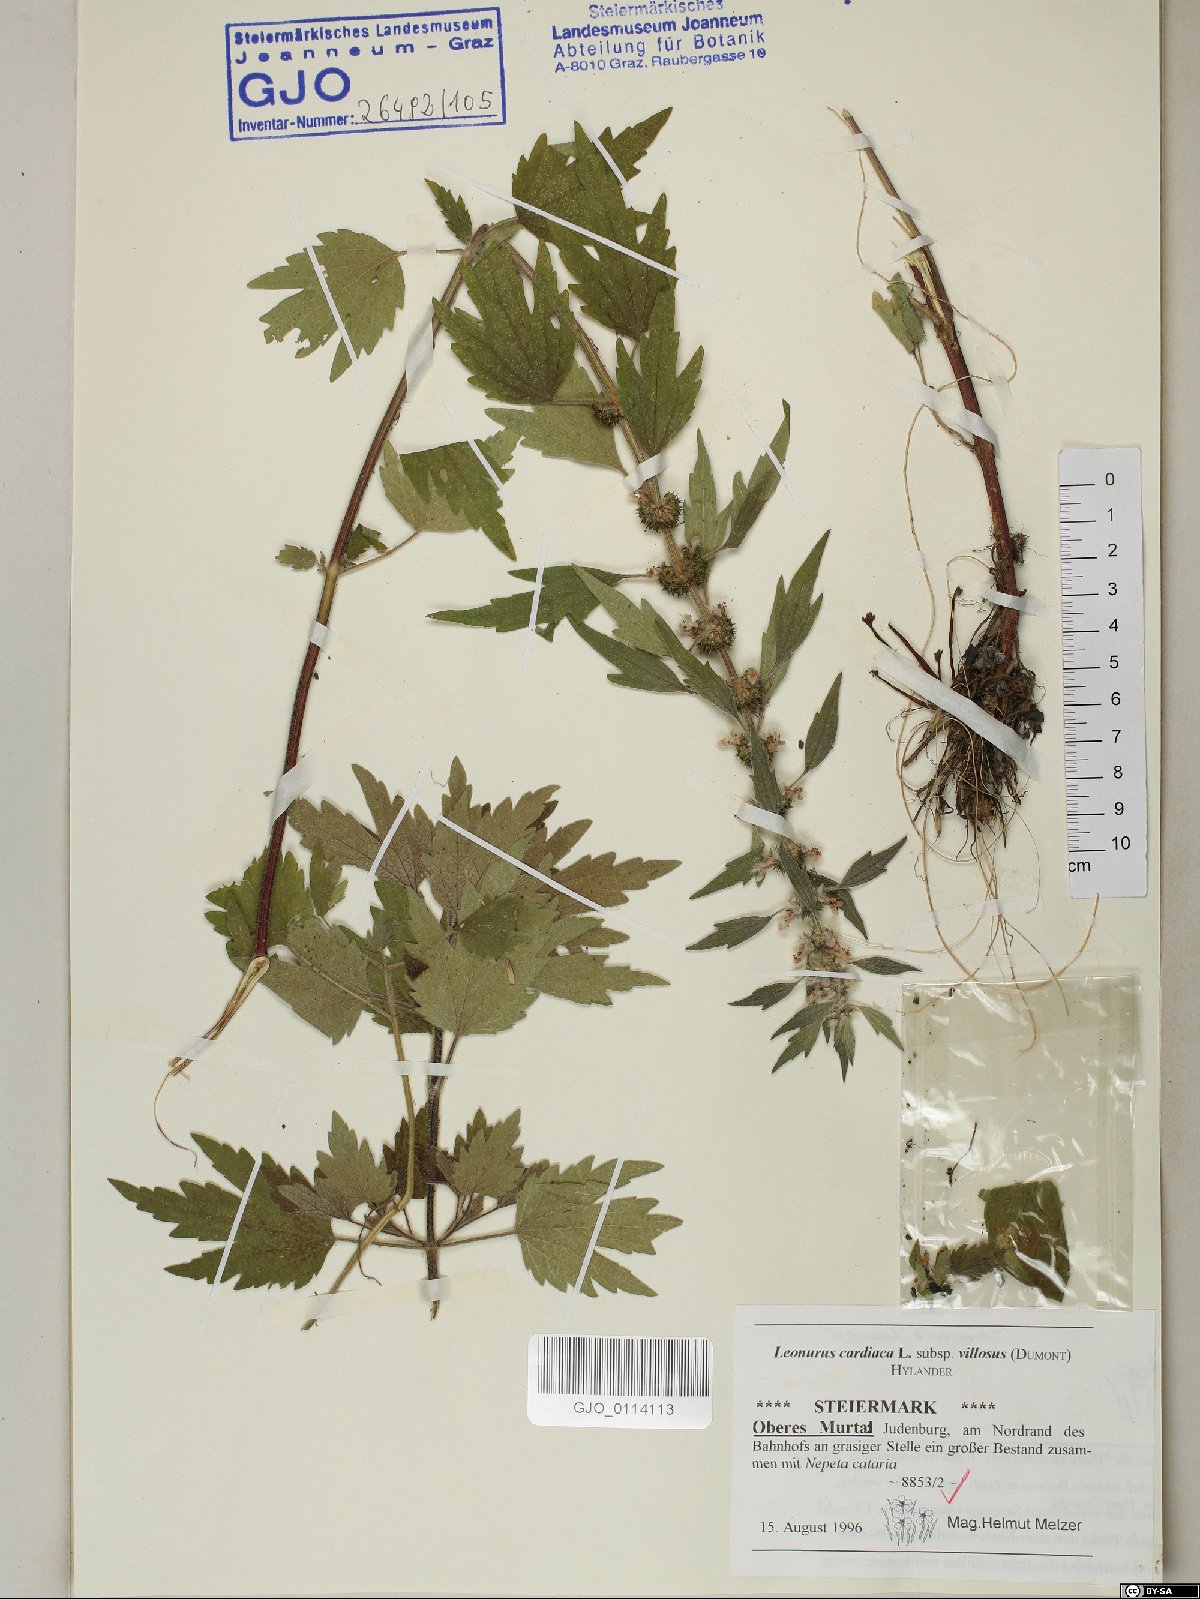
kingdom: Plantae
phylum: Tracheophyta
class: Magnoliopsida
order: Lamiales
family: Lamiaceae
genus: Leonurus
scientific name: Leonurus quinquelobatus
